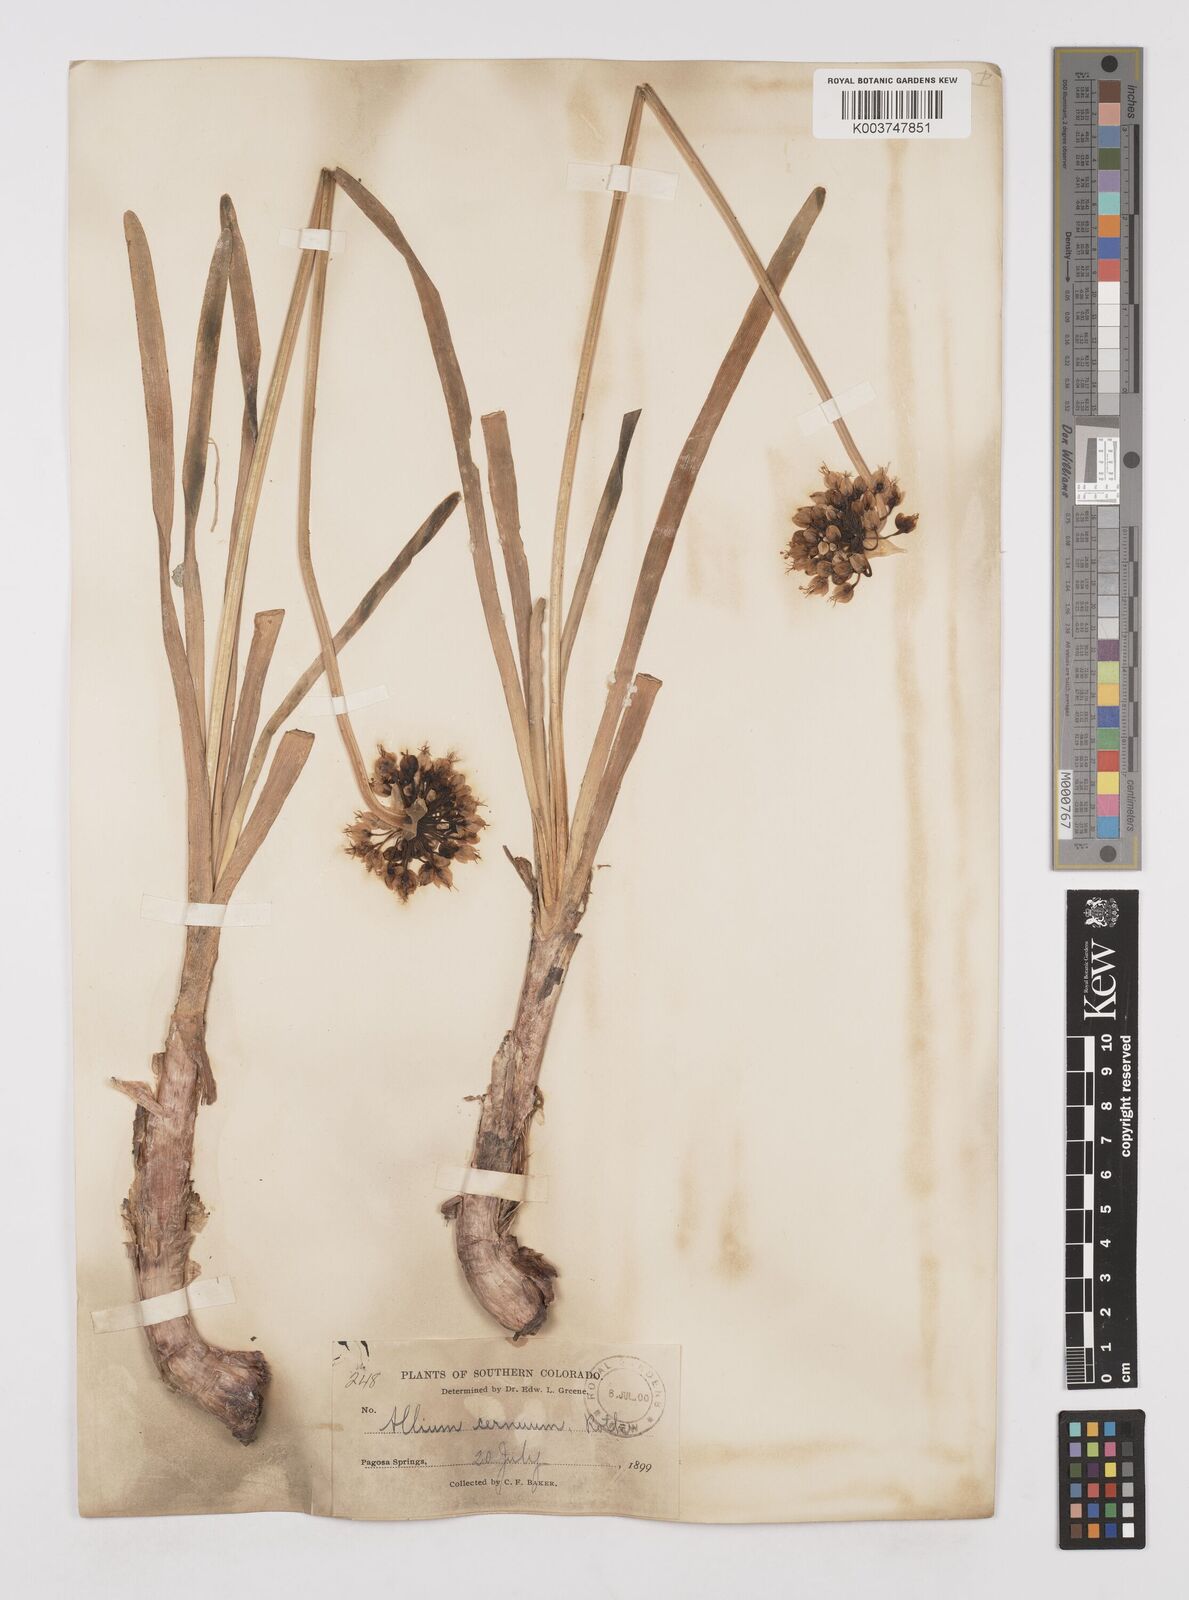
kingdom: Plantae
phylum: Tracheophyta
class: Liliopsida
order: Asparagales
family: Amaryllidaceae
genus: Allium
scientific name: Allium cernuum
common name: Nodding onion
